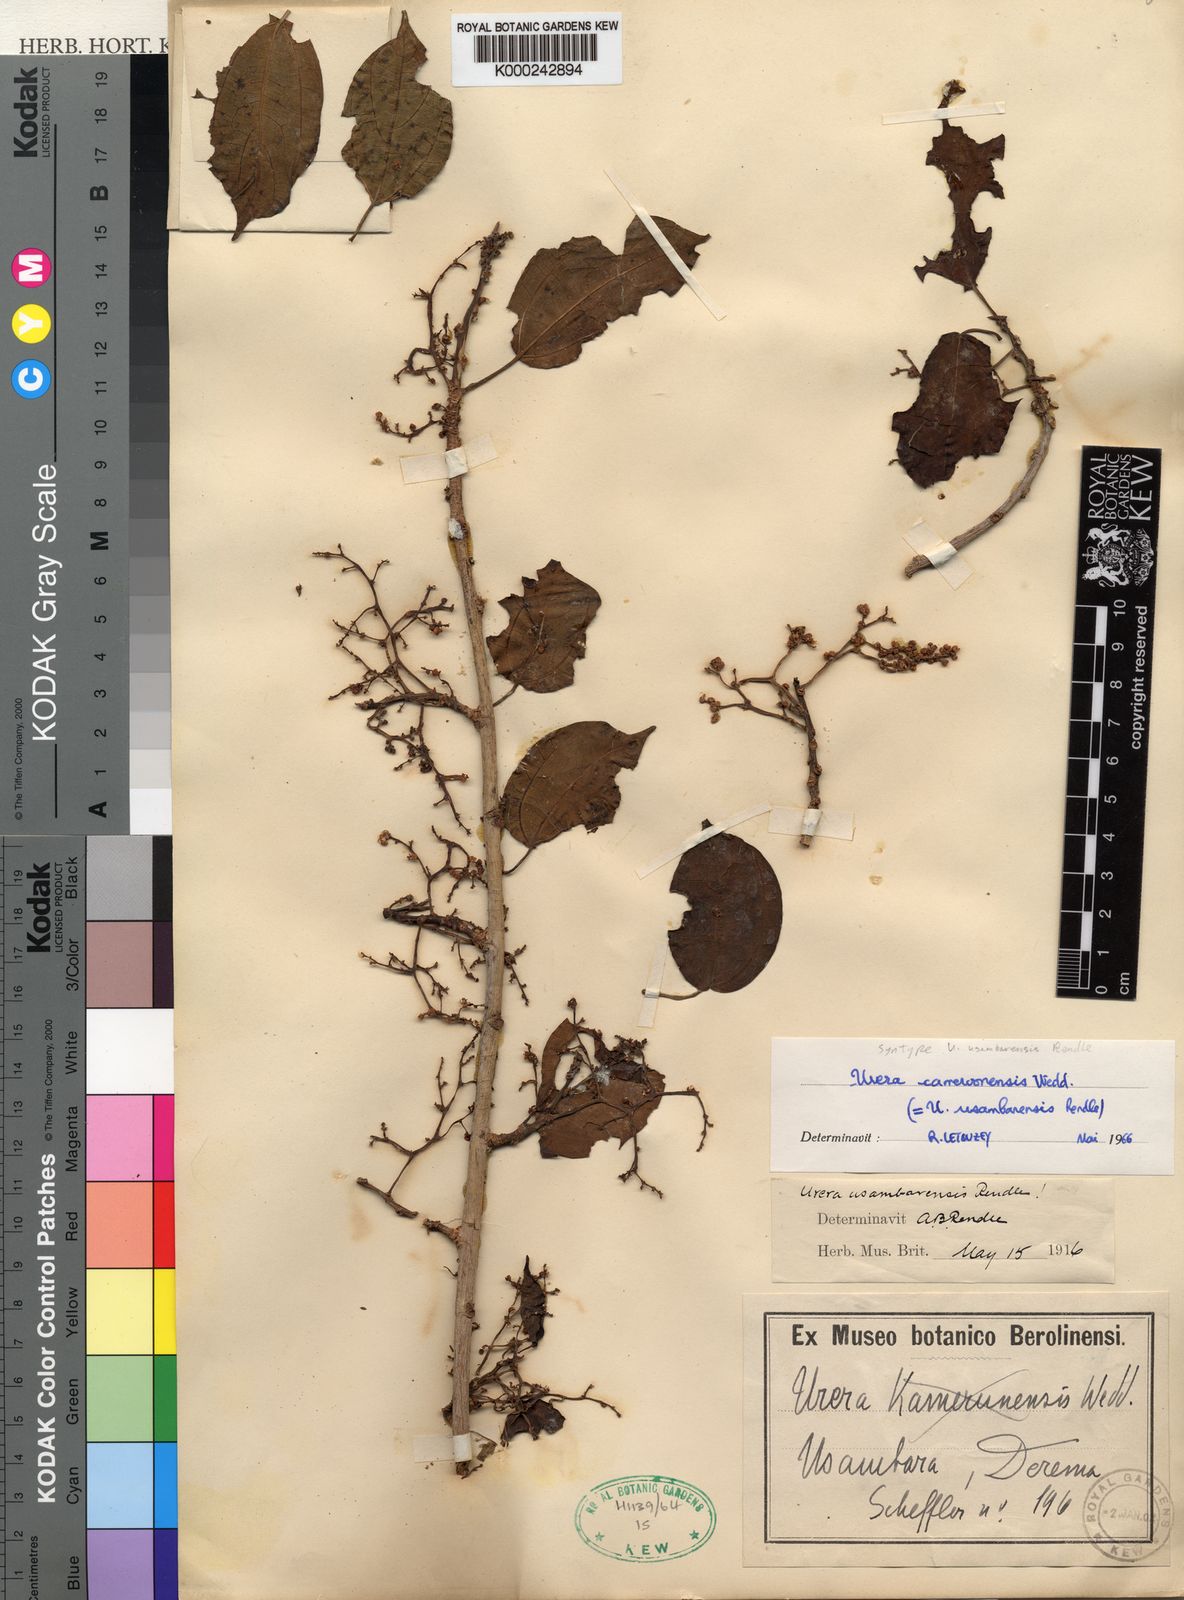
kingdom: Plantae
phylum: Tracheophyta
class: Magnoliopsida
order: Rosales
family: Urticaceae
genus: Scepocarpus
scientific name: Scepocarpus
